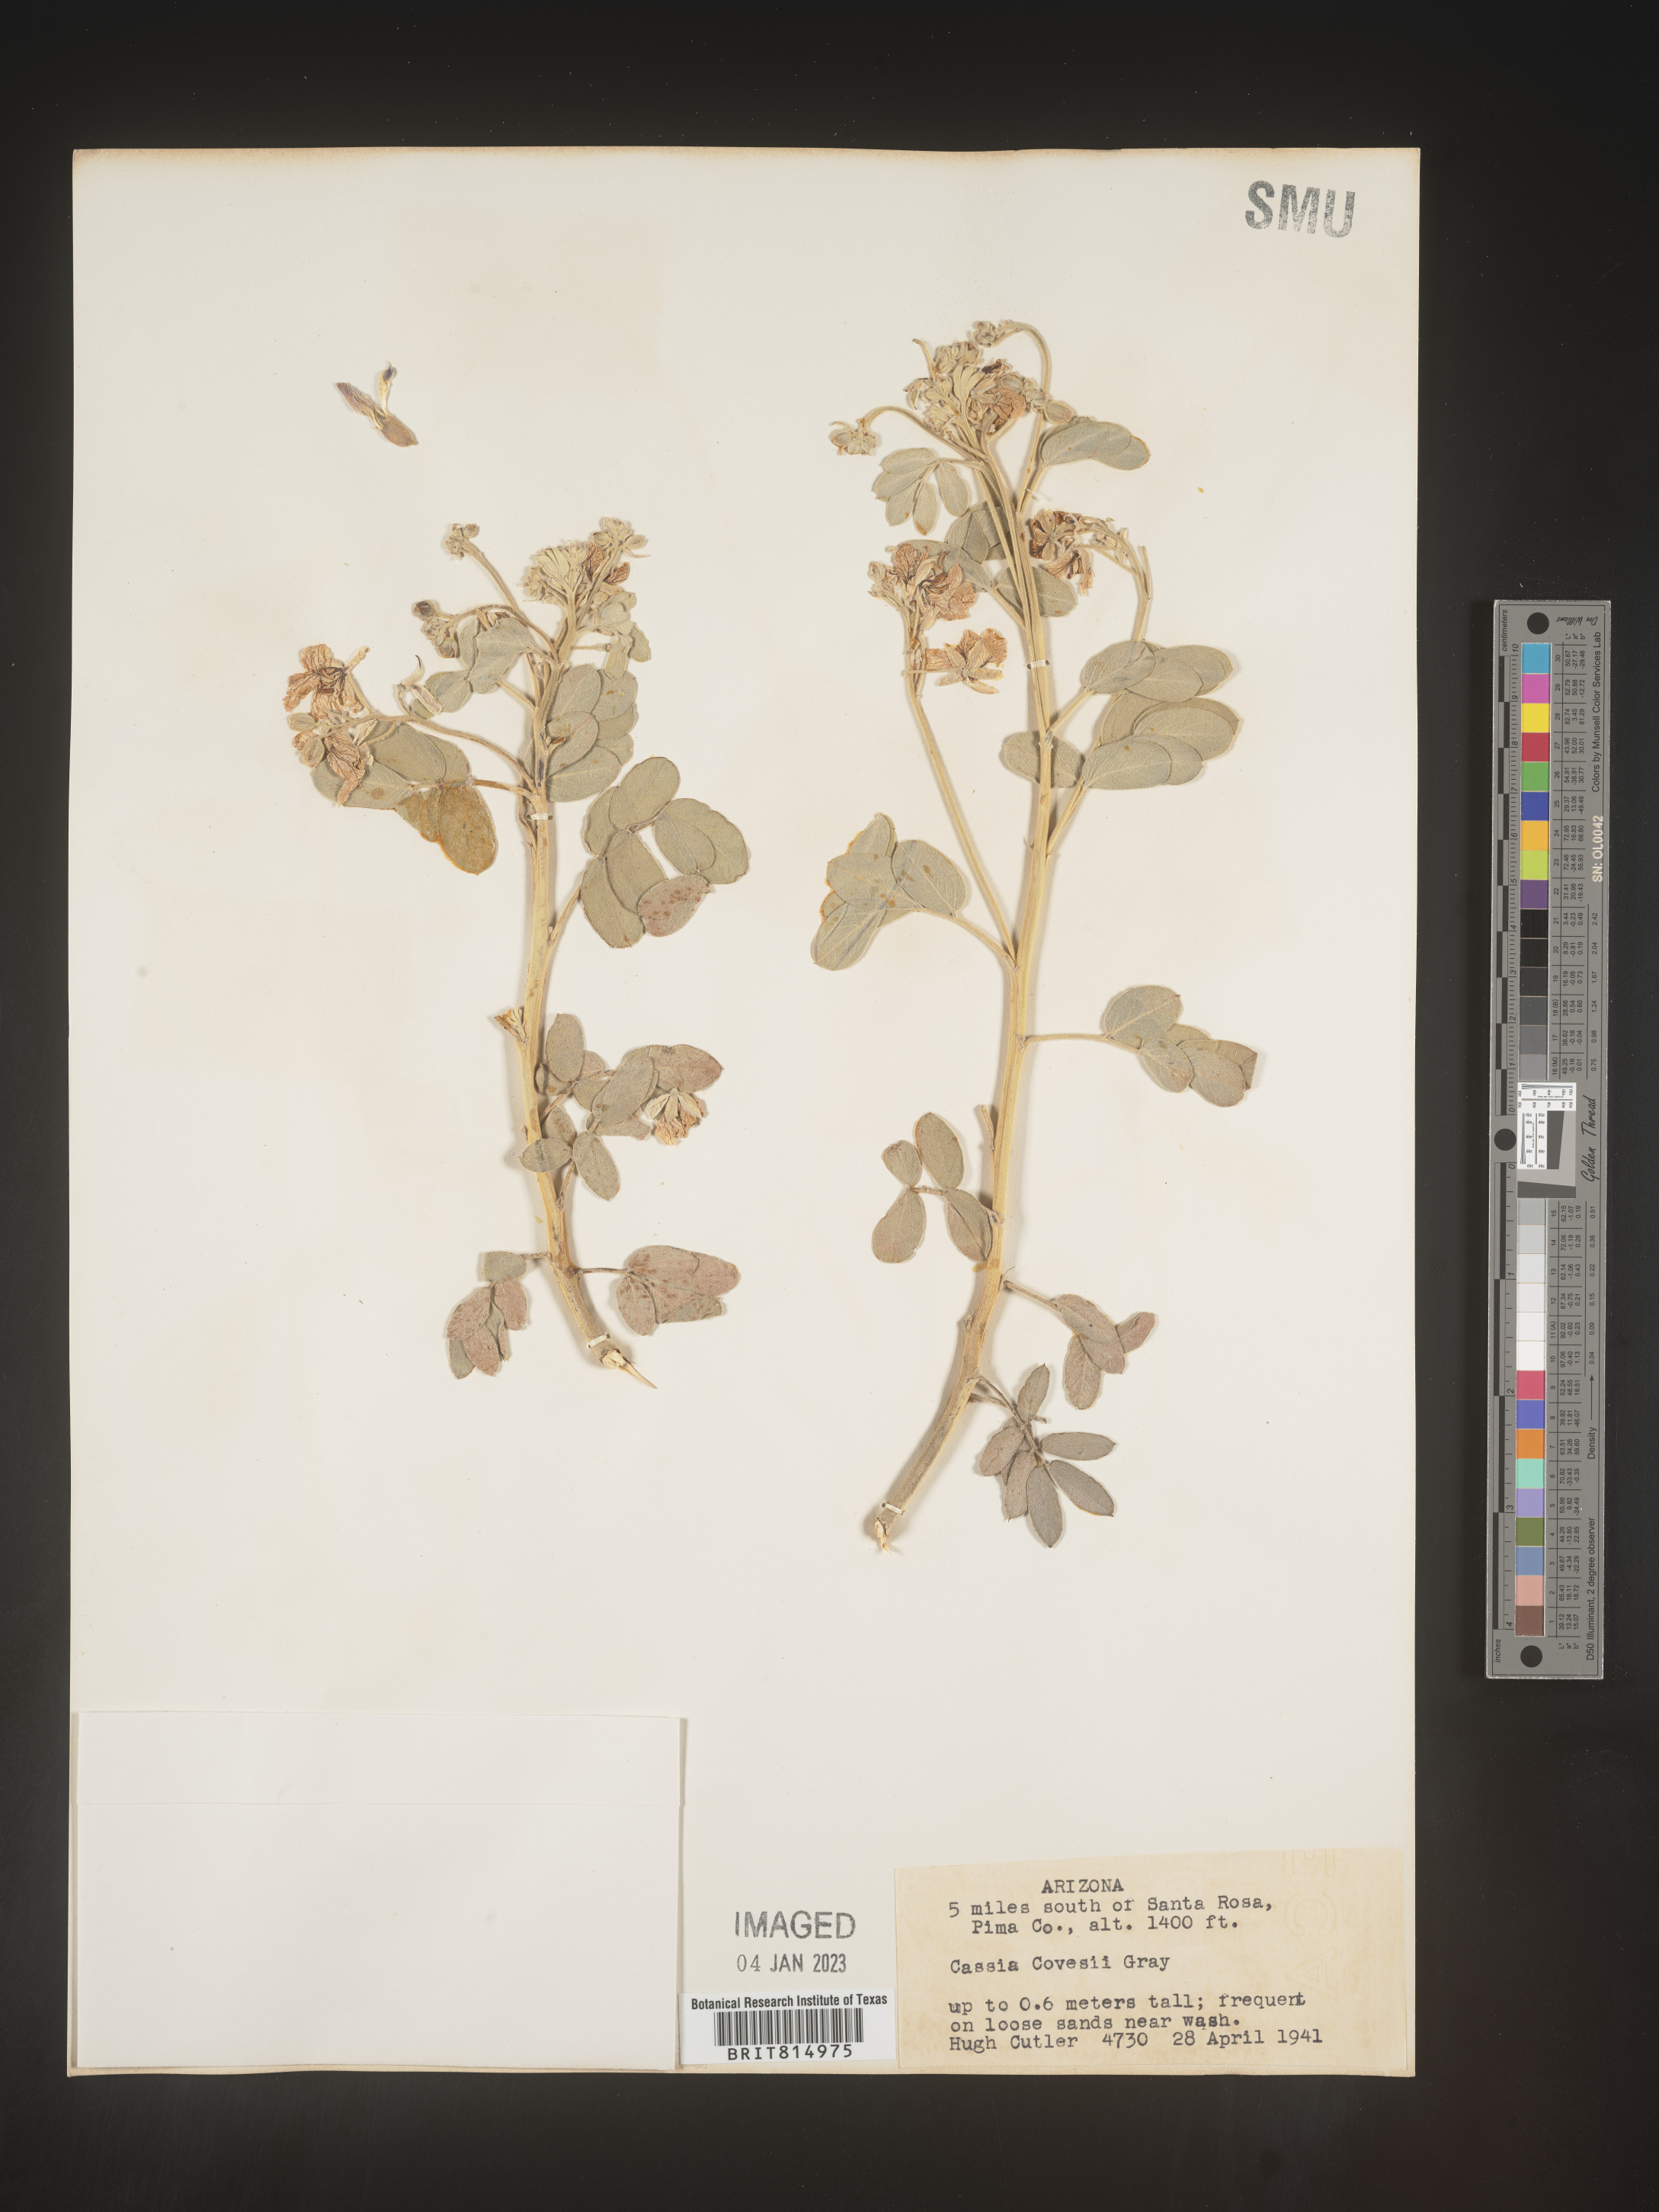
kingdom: Plantae
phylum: Tracheophyta
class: Magnoliopsida
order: Fabales
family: Fabaceae
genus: Cassia
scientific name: Cassia
